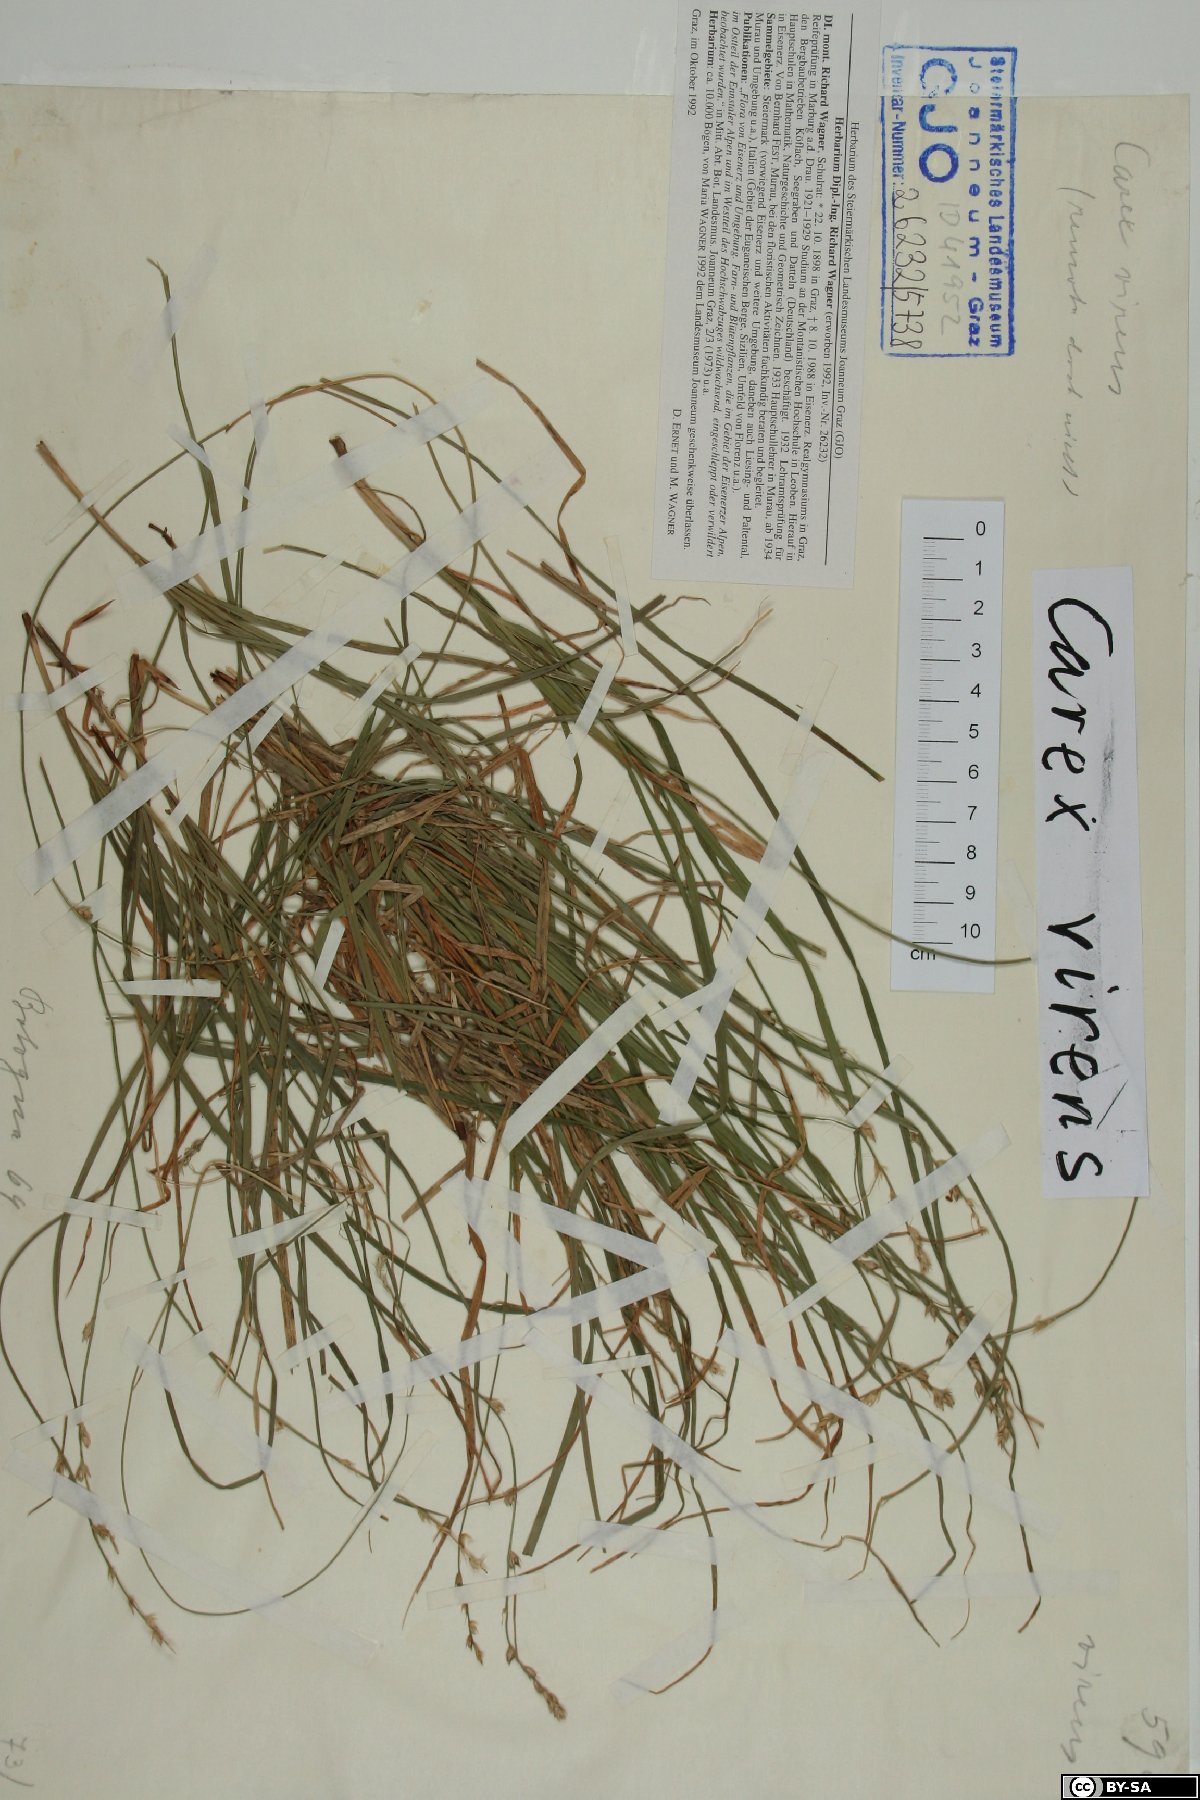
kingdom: Plantae
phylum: Tracheophyta
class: Liliopsida
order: Poales
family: Cyperaceae
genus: Carex
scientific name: Carex divulsa
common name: Grassland sedge
